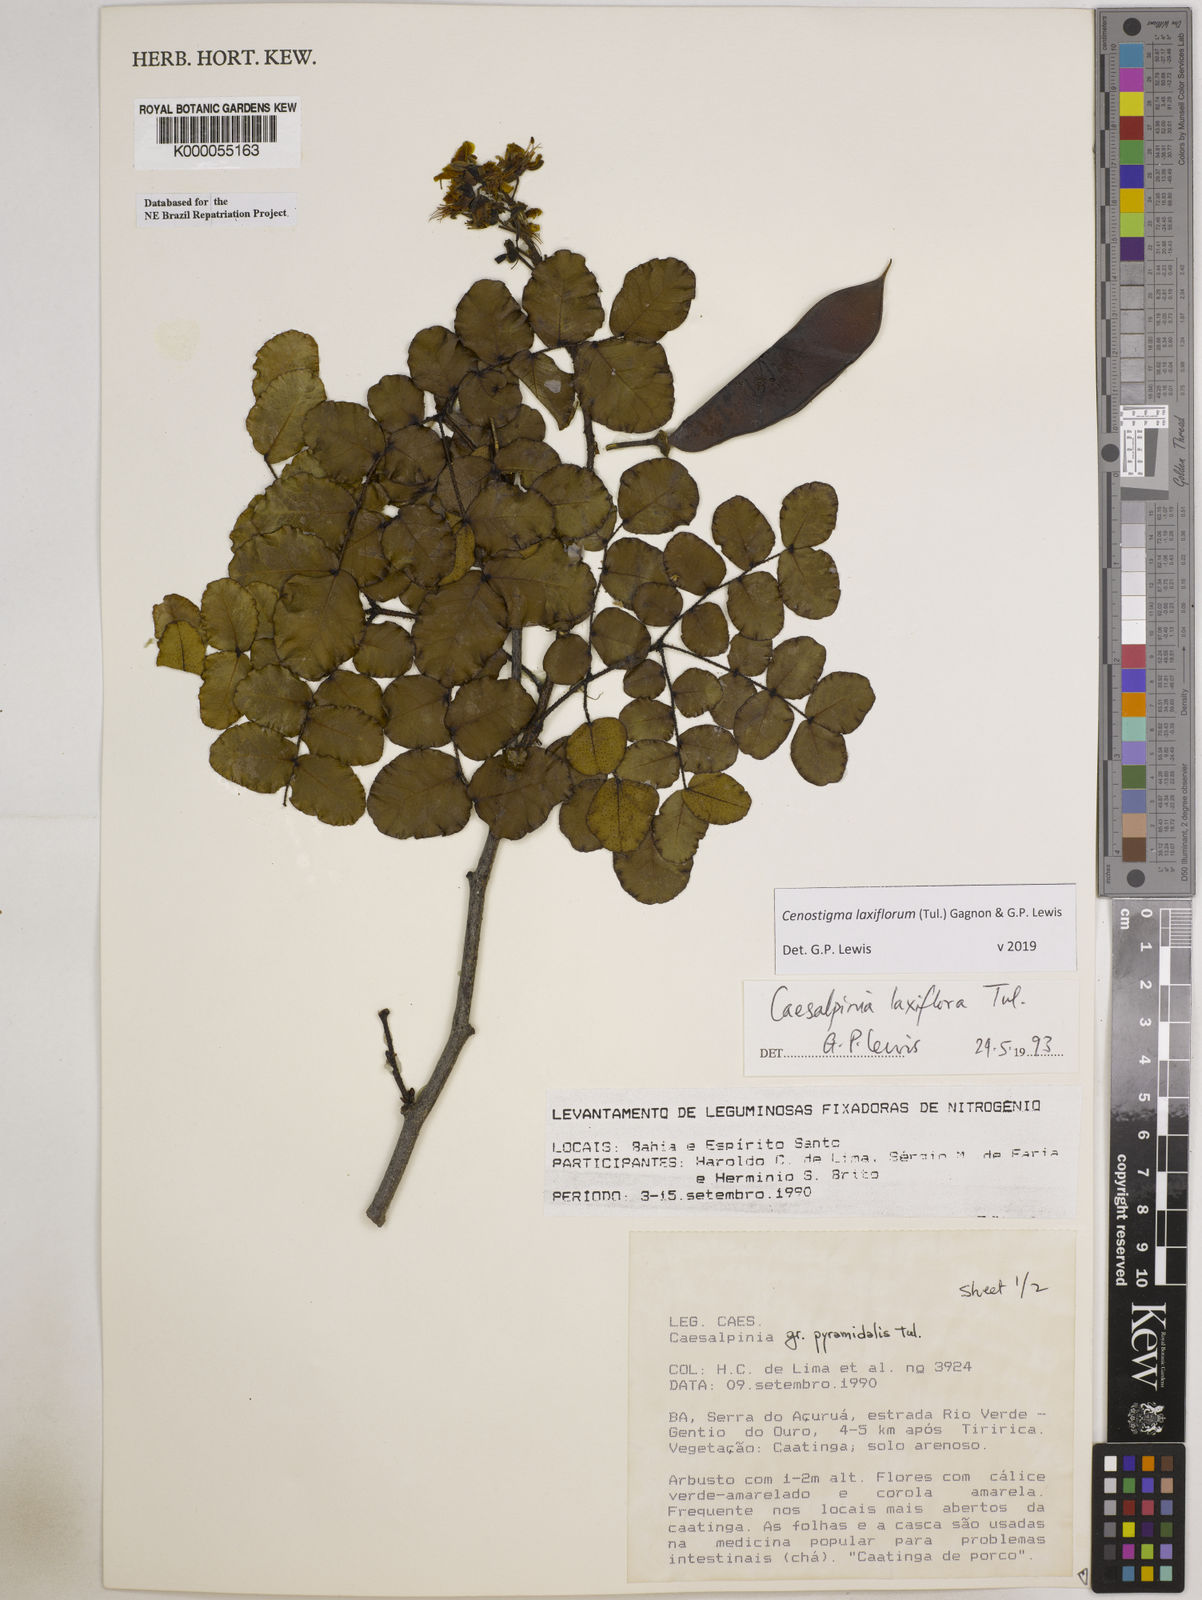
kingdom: Plantae
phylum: Tracheophyta
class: Magnoliopsida
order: Fabales
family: Fabaceae
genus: Cenostigma
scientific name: Cenostigma laxiflorum
